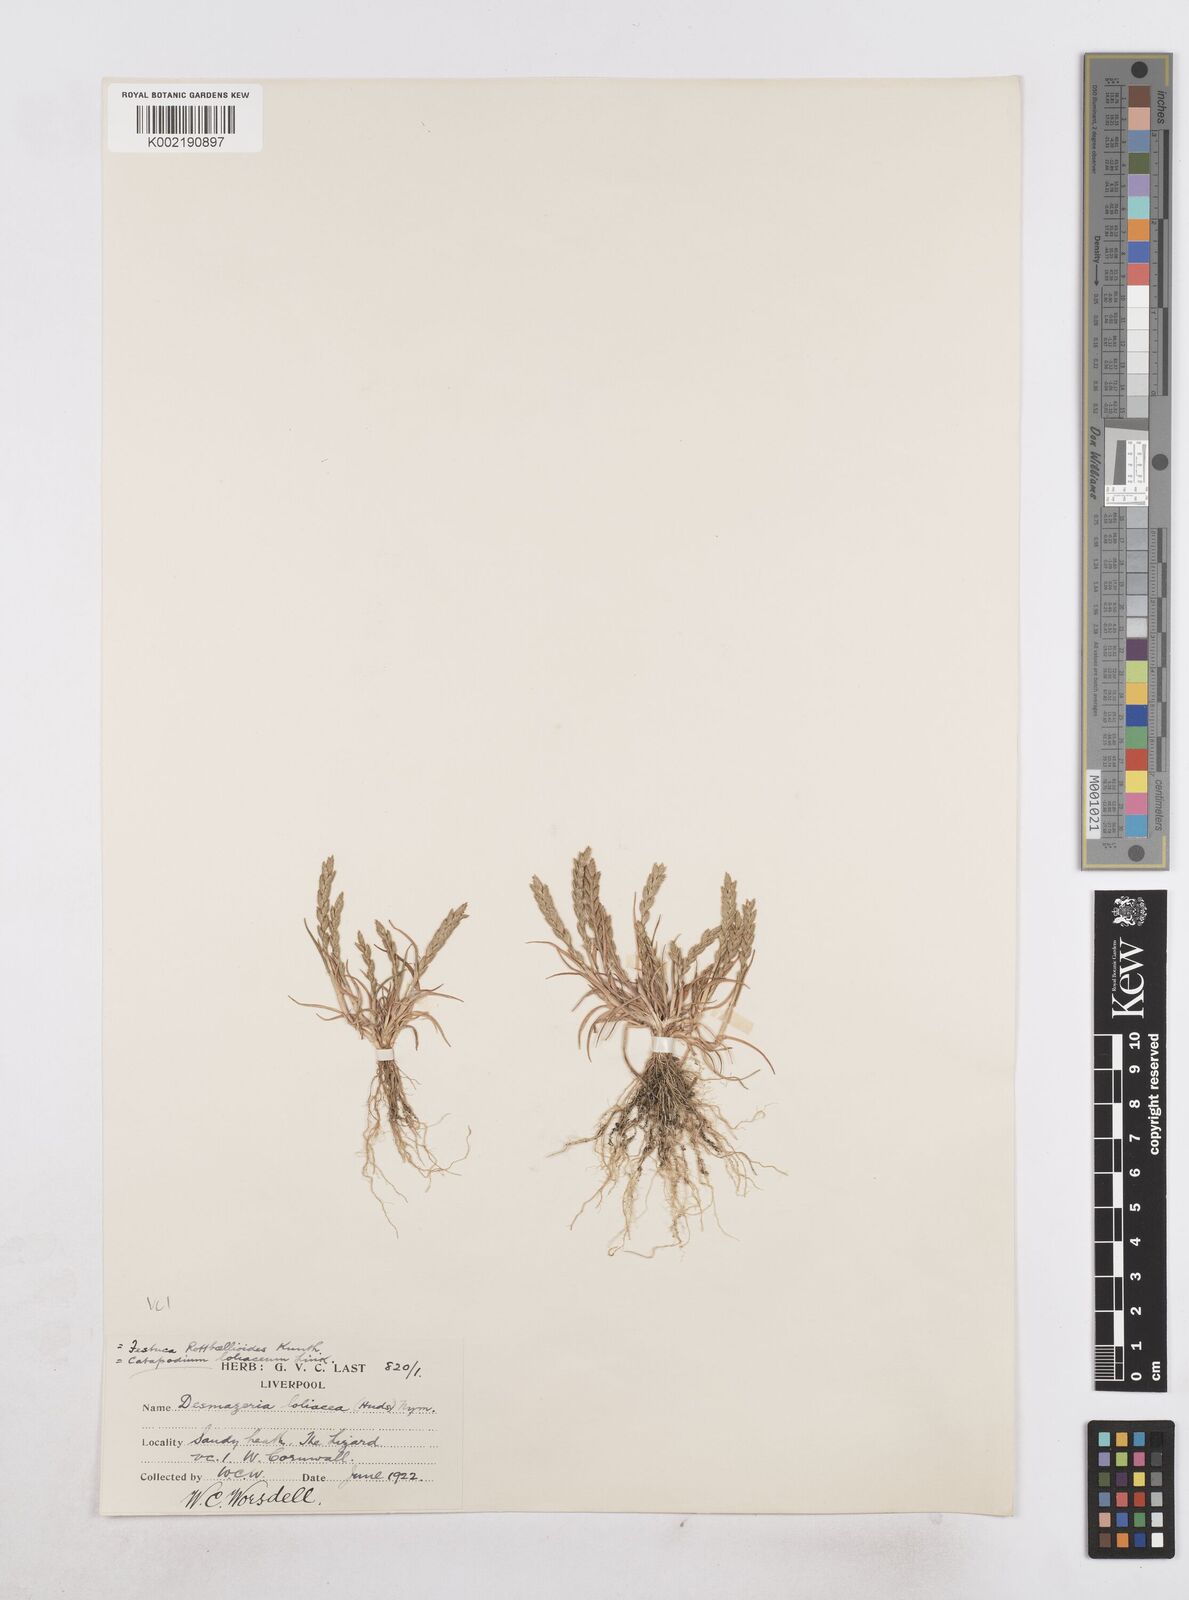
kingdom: Plantae
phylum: Tracheophyta
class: Liliopsida
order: Poales
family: Poaceae
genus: Catapodium
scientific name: Catapodium marinum
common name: Sea fern-grass
